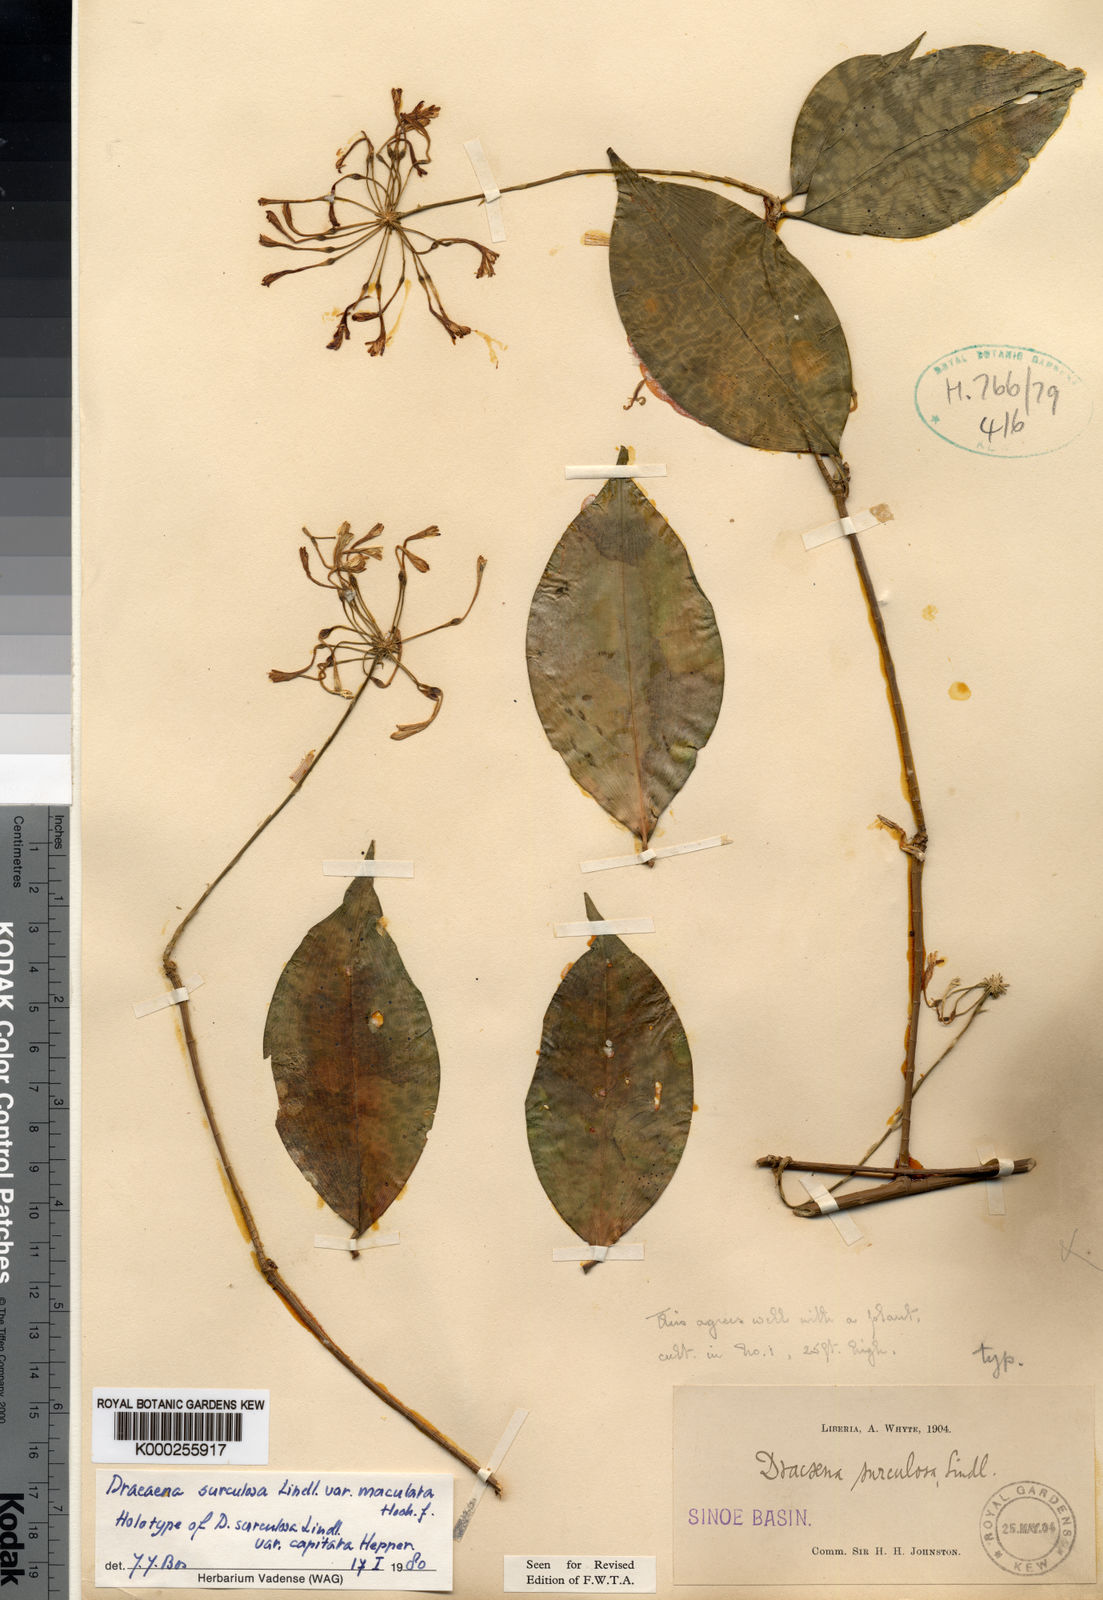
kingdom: Plantae
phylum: Tracheophyta
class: Liliopsida
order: Asparagales
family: Asparagaceae
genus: Dracaena
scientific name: Dracaena surculosa
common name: Spotted dracaena
